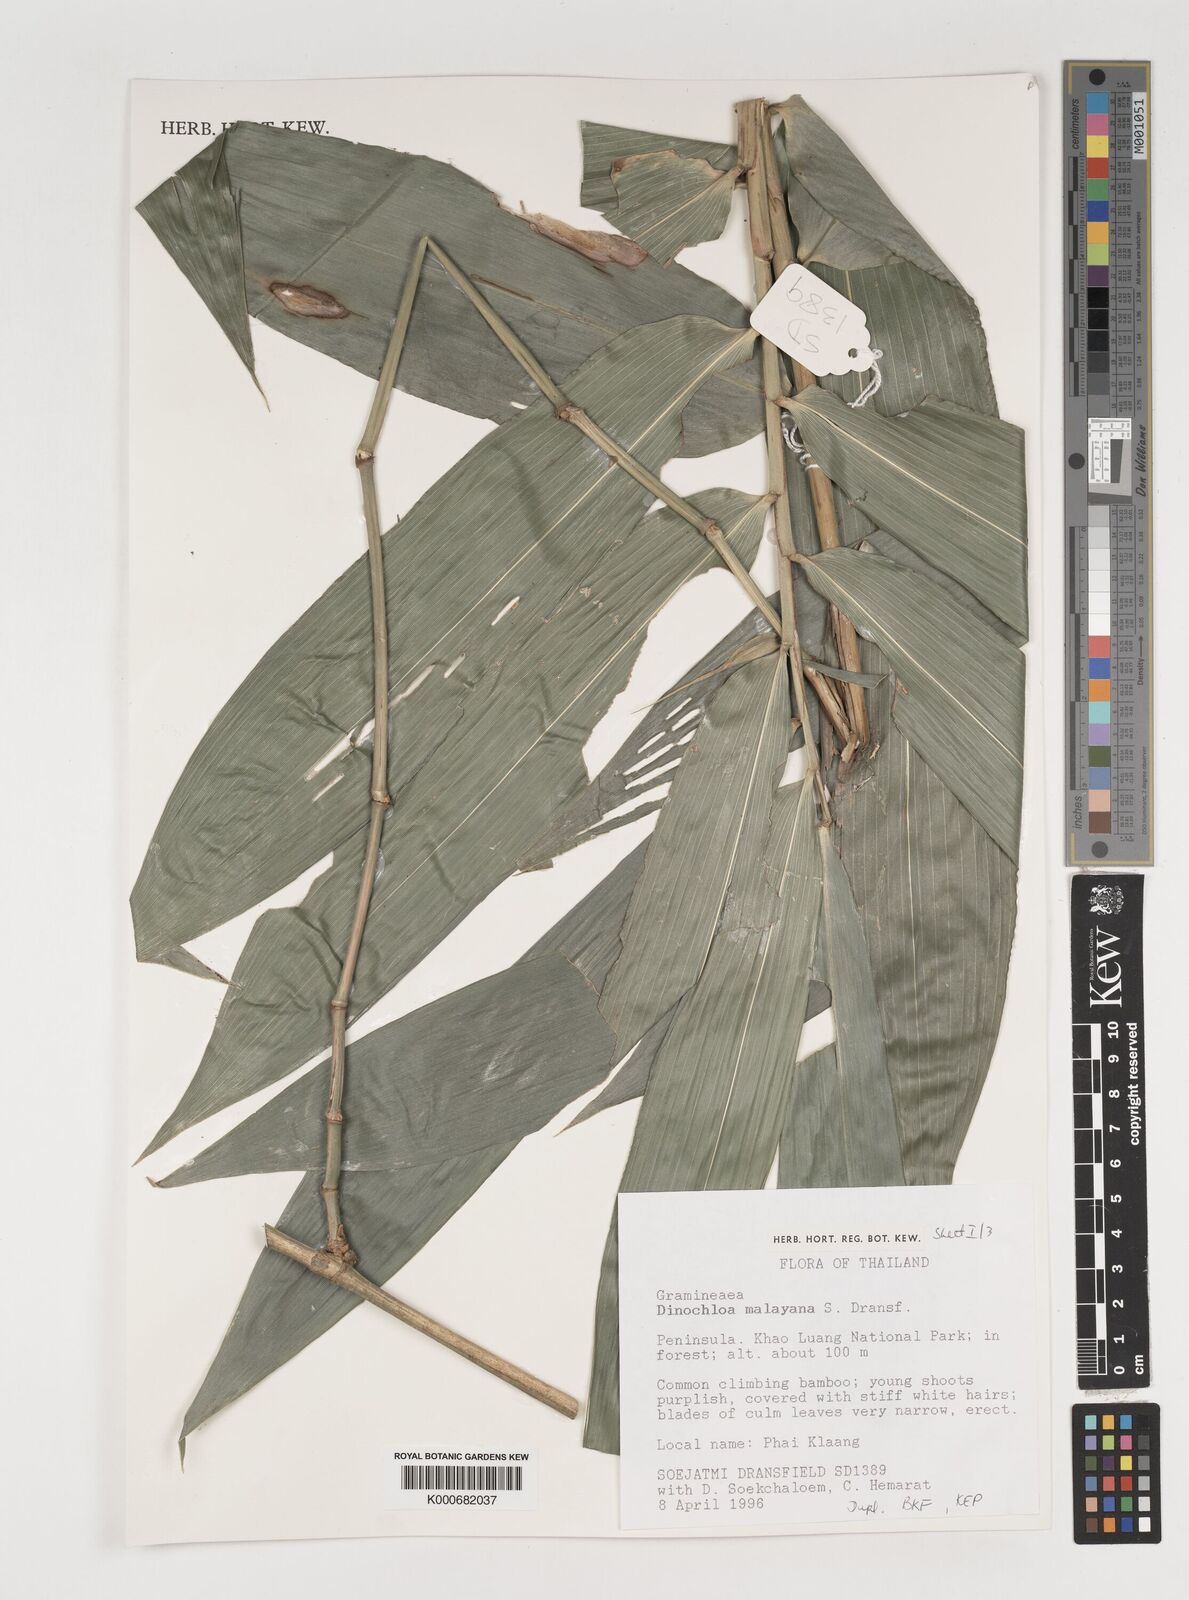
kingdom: Plantae
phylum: Tracheophyta
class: Liliopsida
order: Poales
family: Poaceae
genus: Dinochloa
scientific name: Dinochloa malayana
